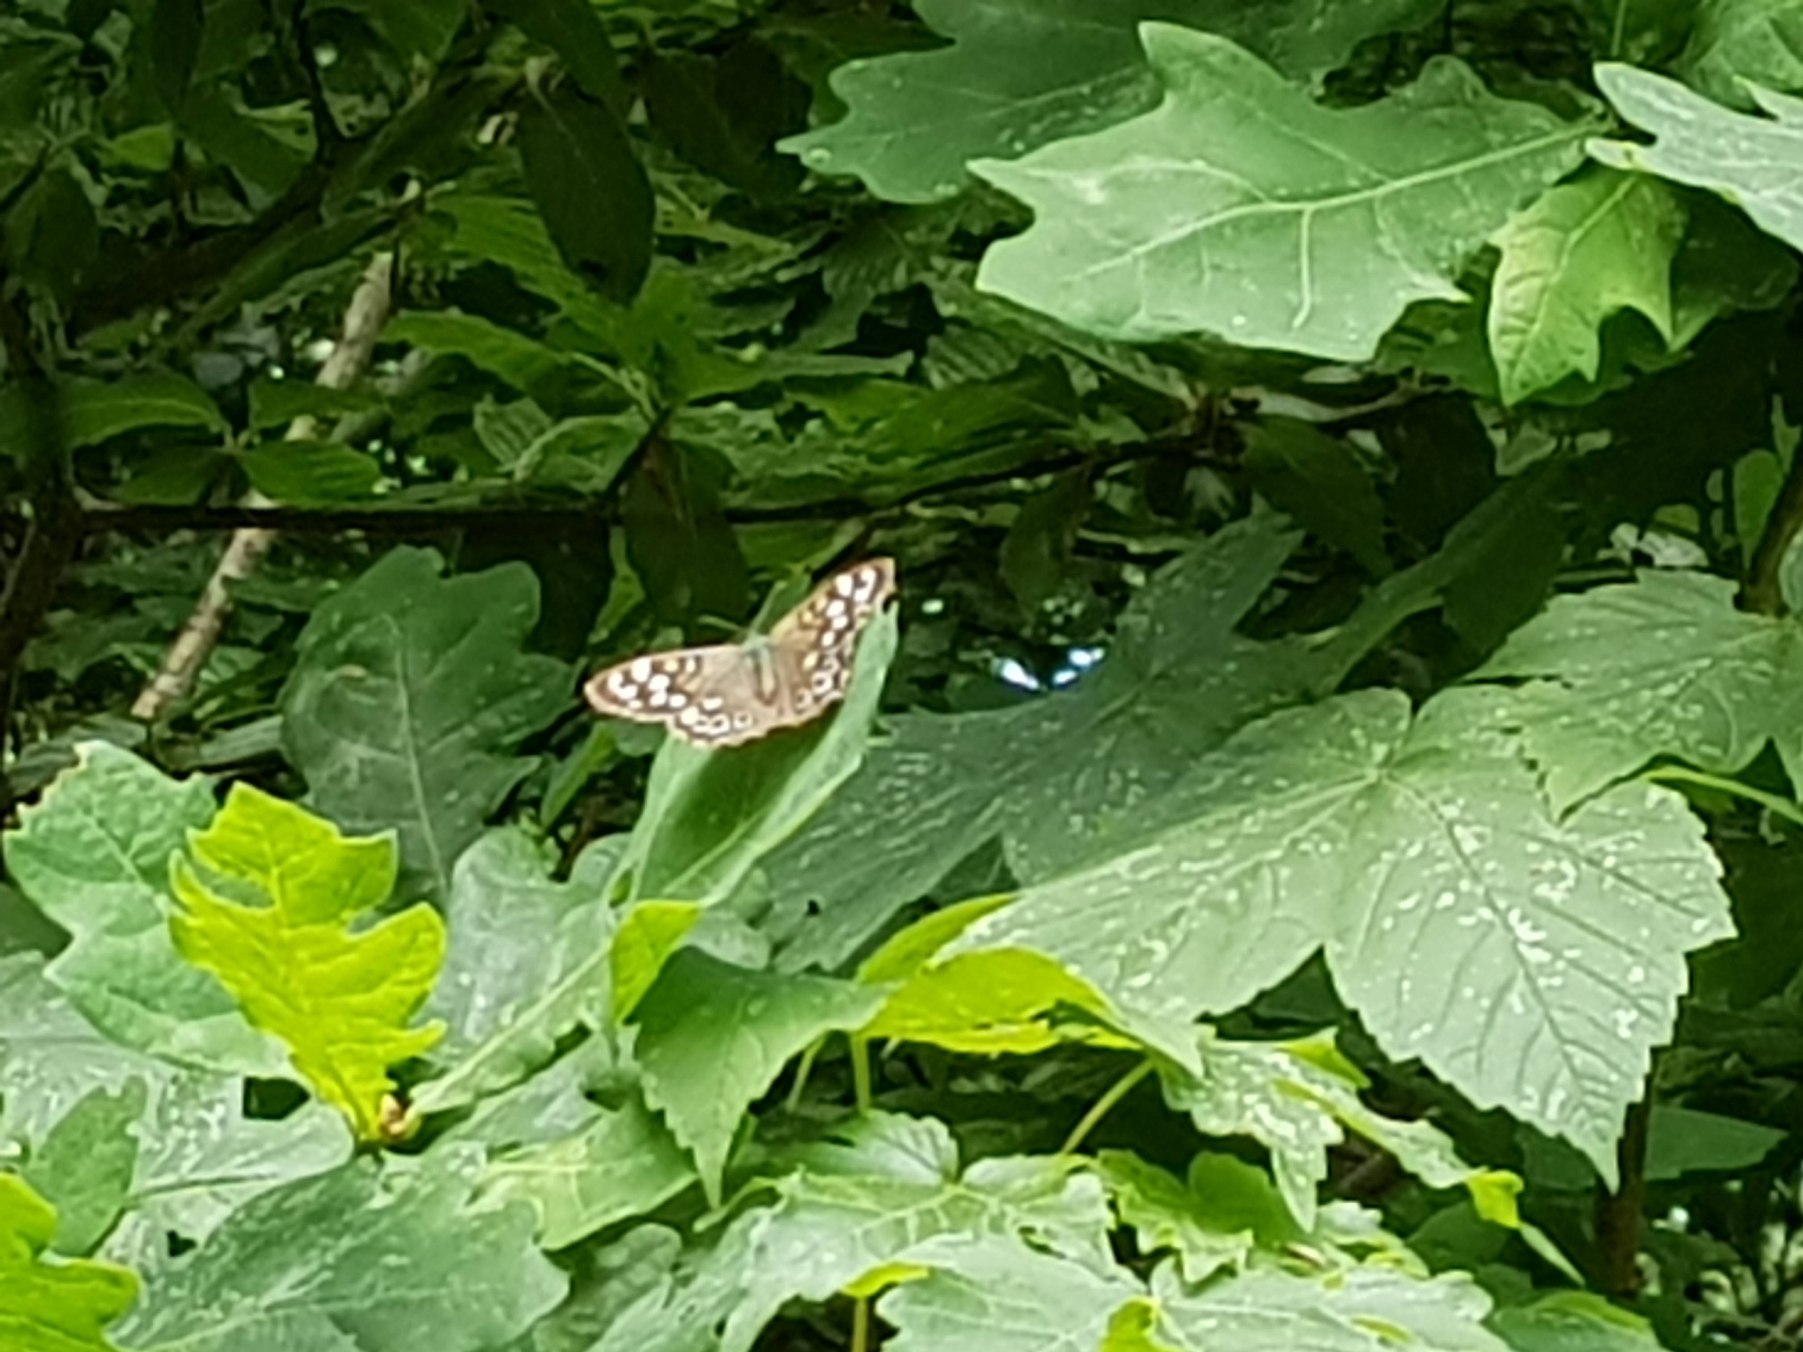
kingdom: Animalia
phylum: Arthropoda
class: Insecta
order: Lepidoptera
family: Nymphalidae
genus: Pararge
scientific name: Pararge aegeria
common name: Skovrandøje
